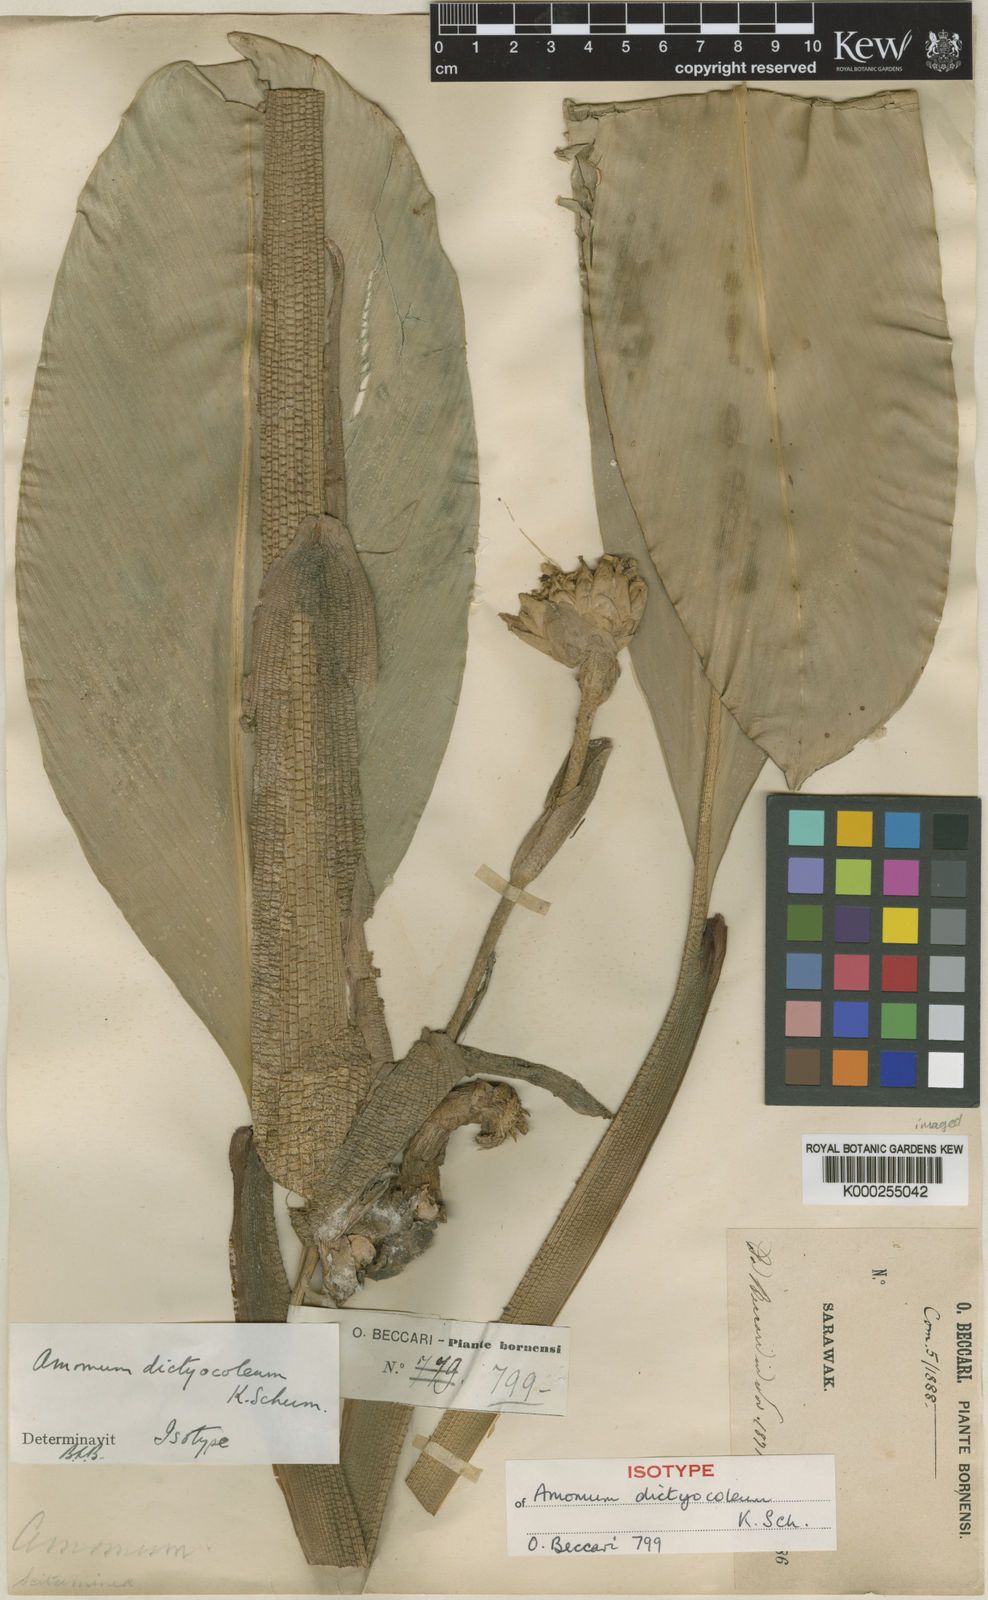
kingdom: Plantae
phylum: Tracheophyta
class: Liliopsida
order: Zingiberales
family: Zingiberaceae
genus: Sundamomum
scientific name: Sundamomum dictyocoleum
